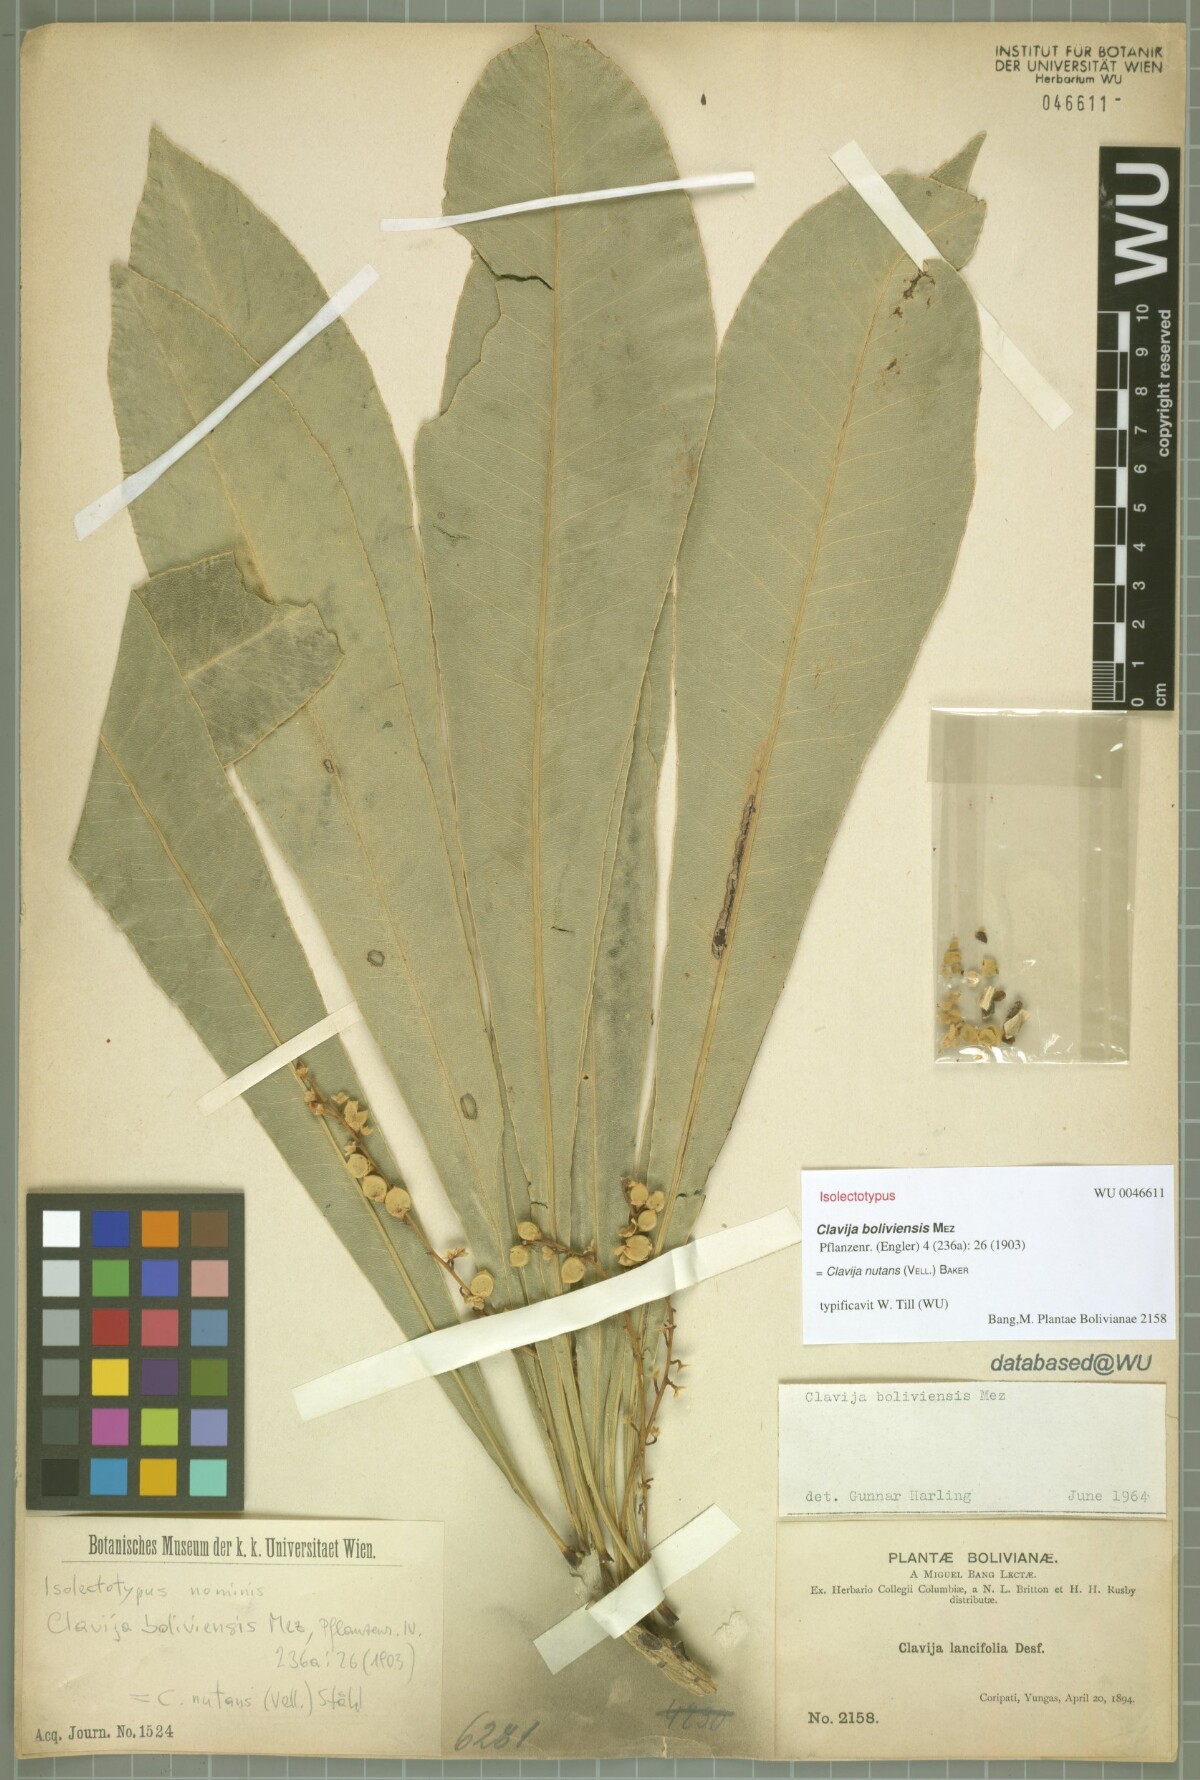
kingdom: Plantae
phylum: Tracheophyta
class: Magnoliopsida
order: Ericales
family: Primulaceae
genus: Clavija
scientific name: Clavija nutans
